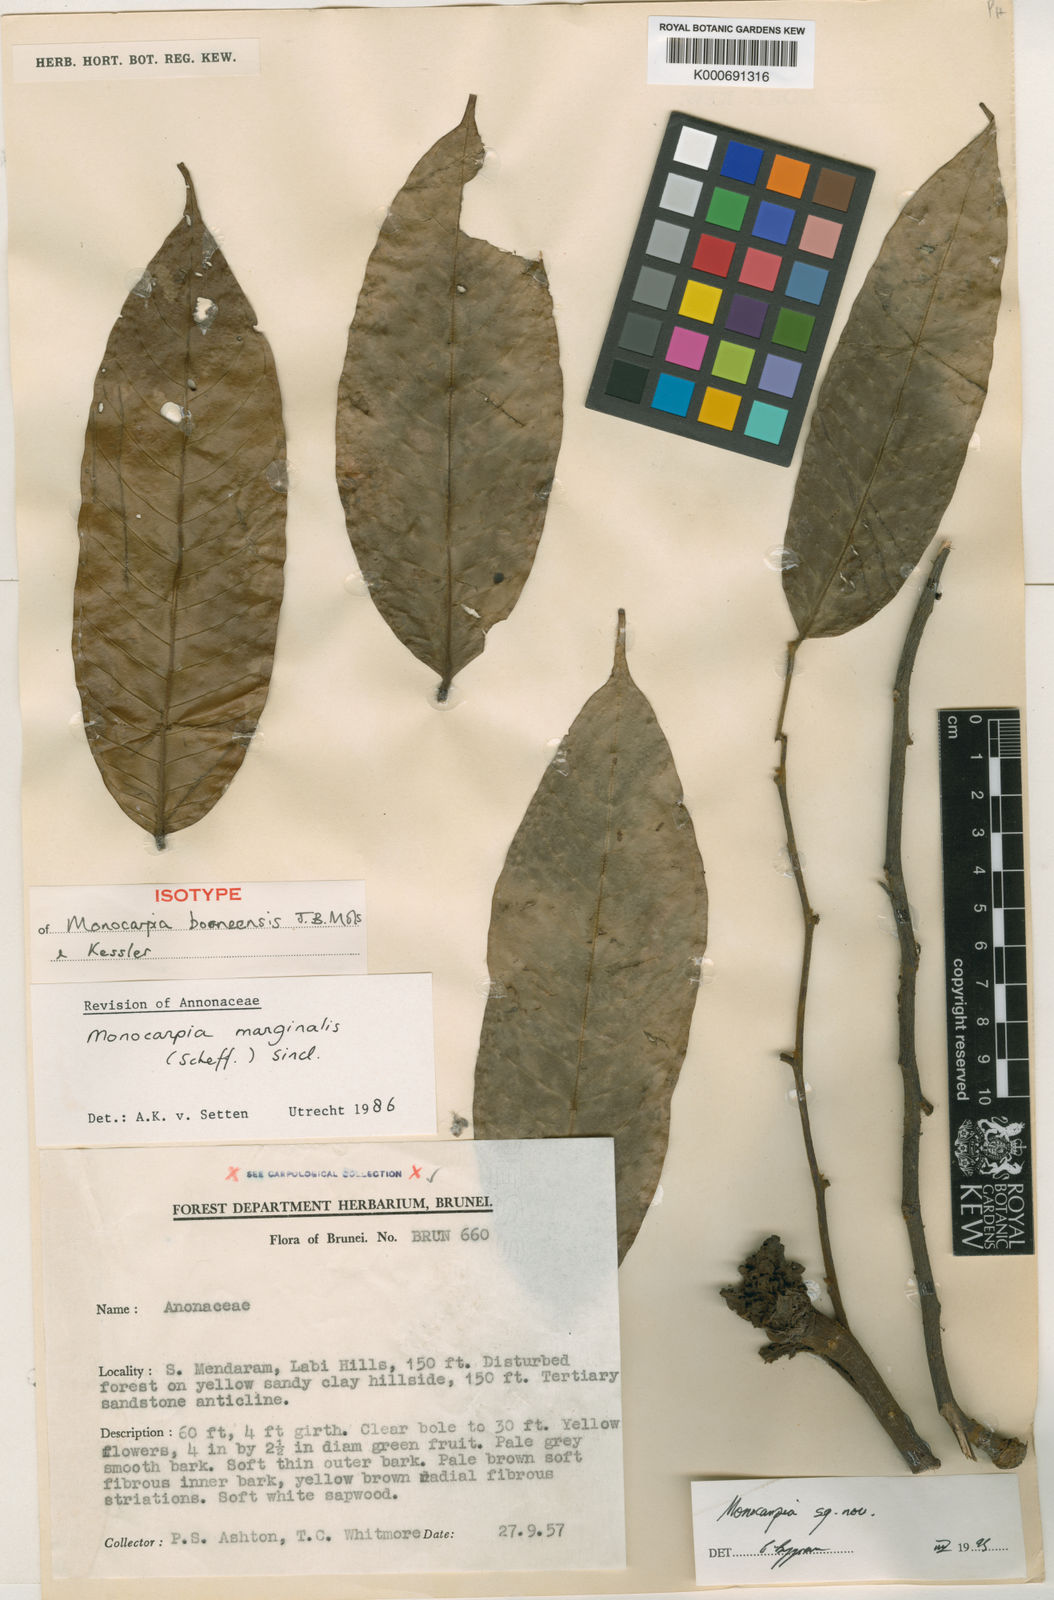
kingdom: Plantae
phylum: Tracheophyta
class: Magnoliopsida
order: Magnoliales
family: Annonaceae
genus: Monocarpia
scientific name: Monocarpia borneensis
